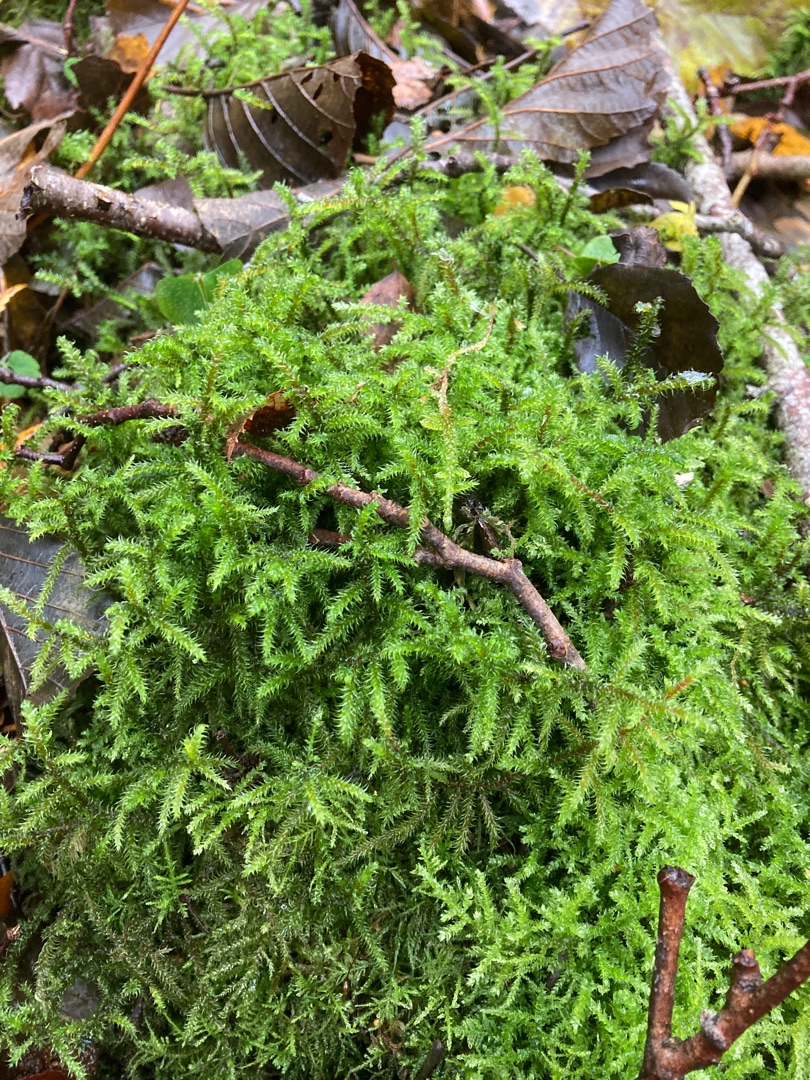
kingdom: Plantae
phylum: Bryophyta
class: Bryopsida
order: Hypnales
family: Hylocomiaceae
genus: Rhytidiadelphus
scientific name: Rhytidiadelphus loreus
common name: Ulvefod-kransemos
